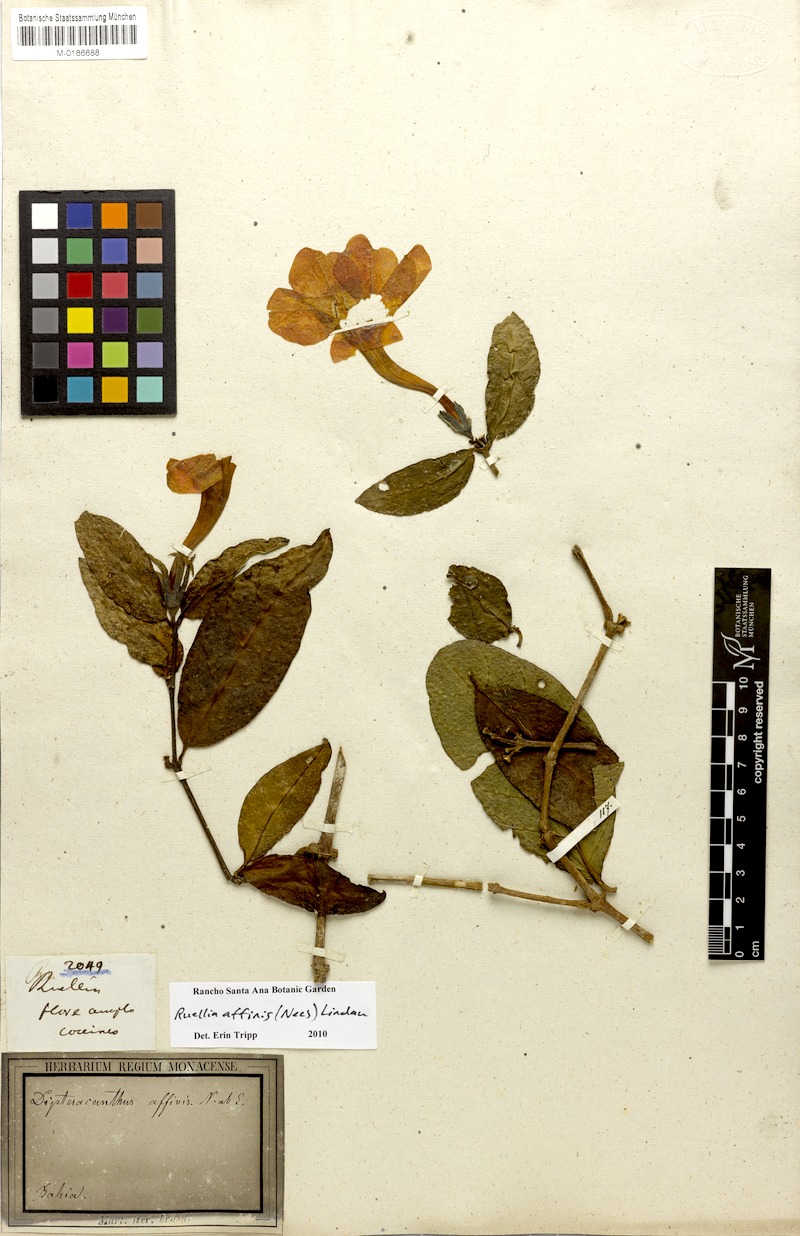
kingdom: Plantae
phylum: Tracheophyta
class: Magnoliopsida
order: Lamiales
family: Acanthaceae
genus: Ruellia
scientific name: Ruellia affinis
